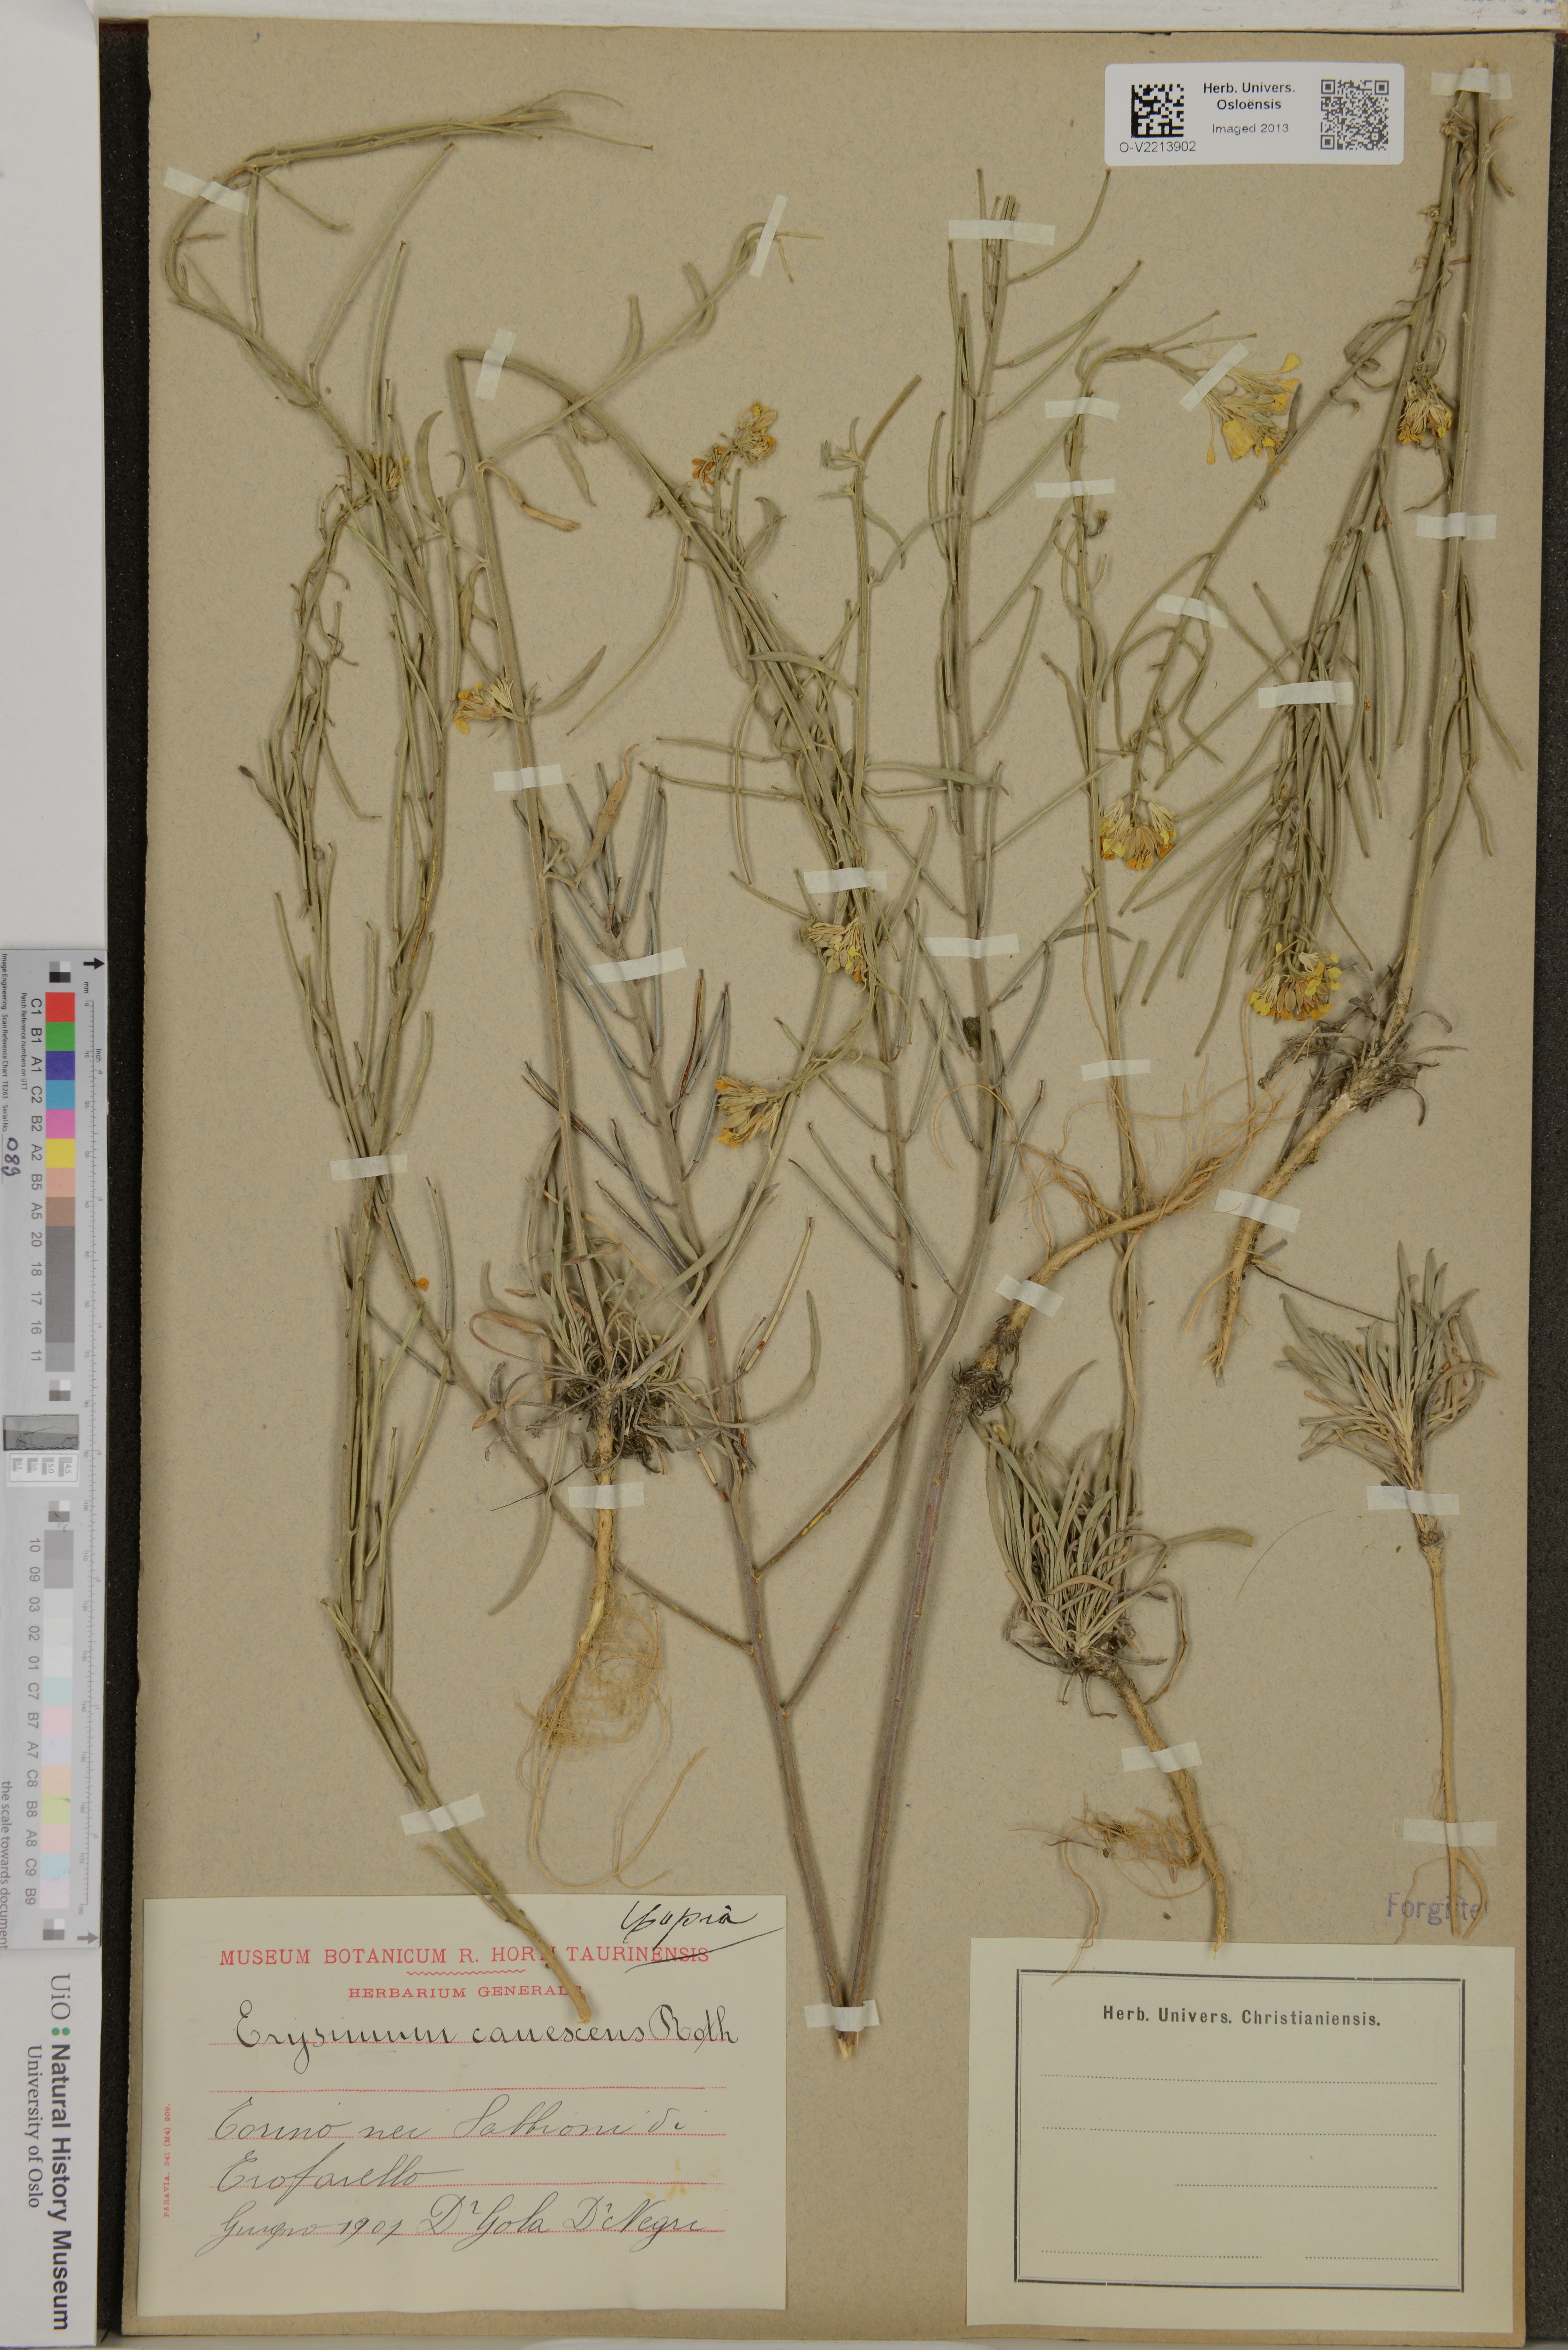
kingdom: Plantae
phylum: Tracheophyta
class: Magnoliopsida
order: Brassicales
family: Brassicaceae
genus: Erysimum
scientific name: Erysimum canescens
